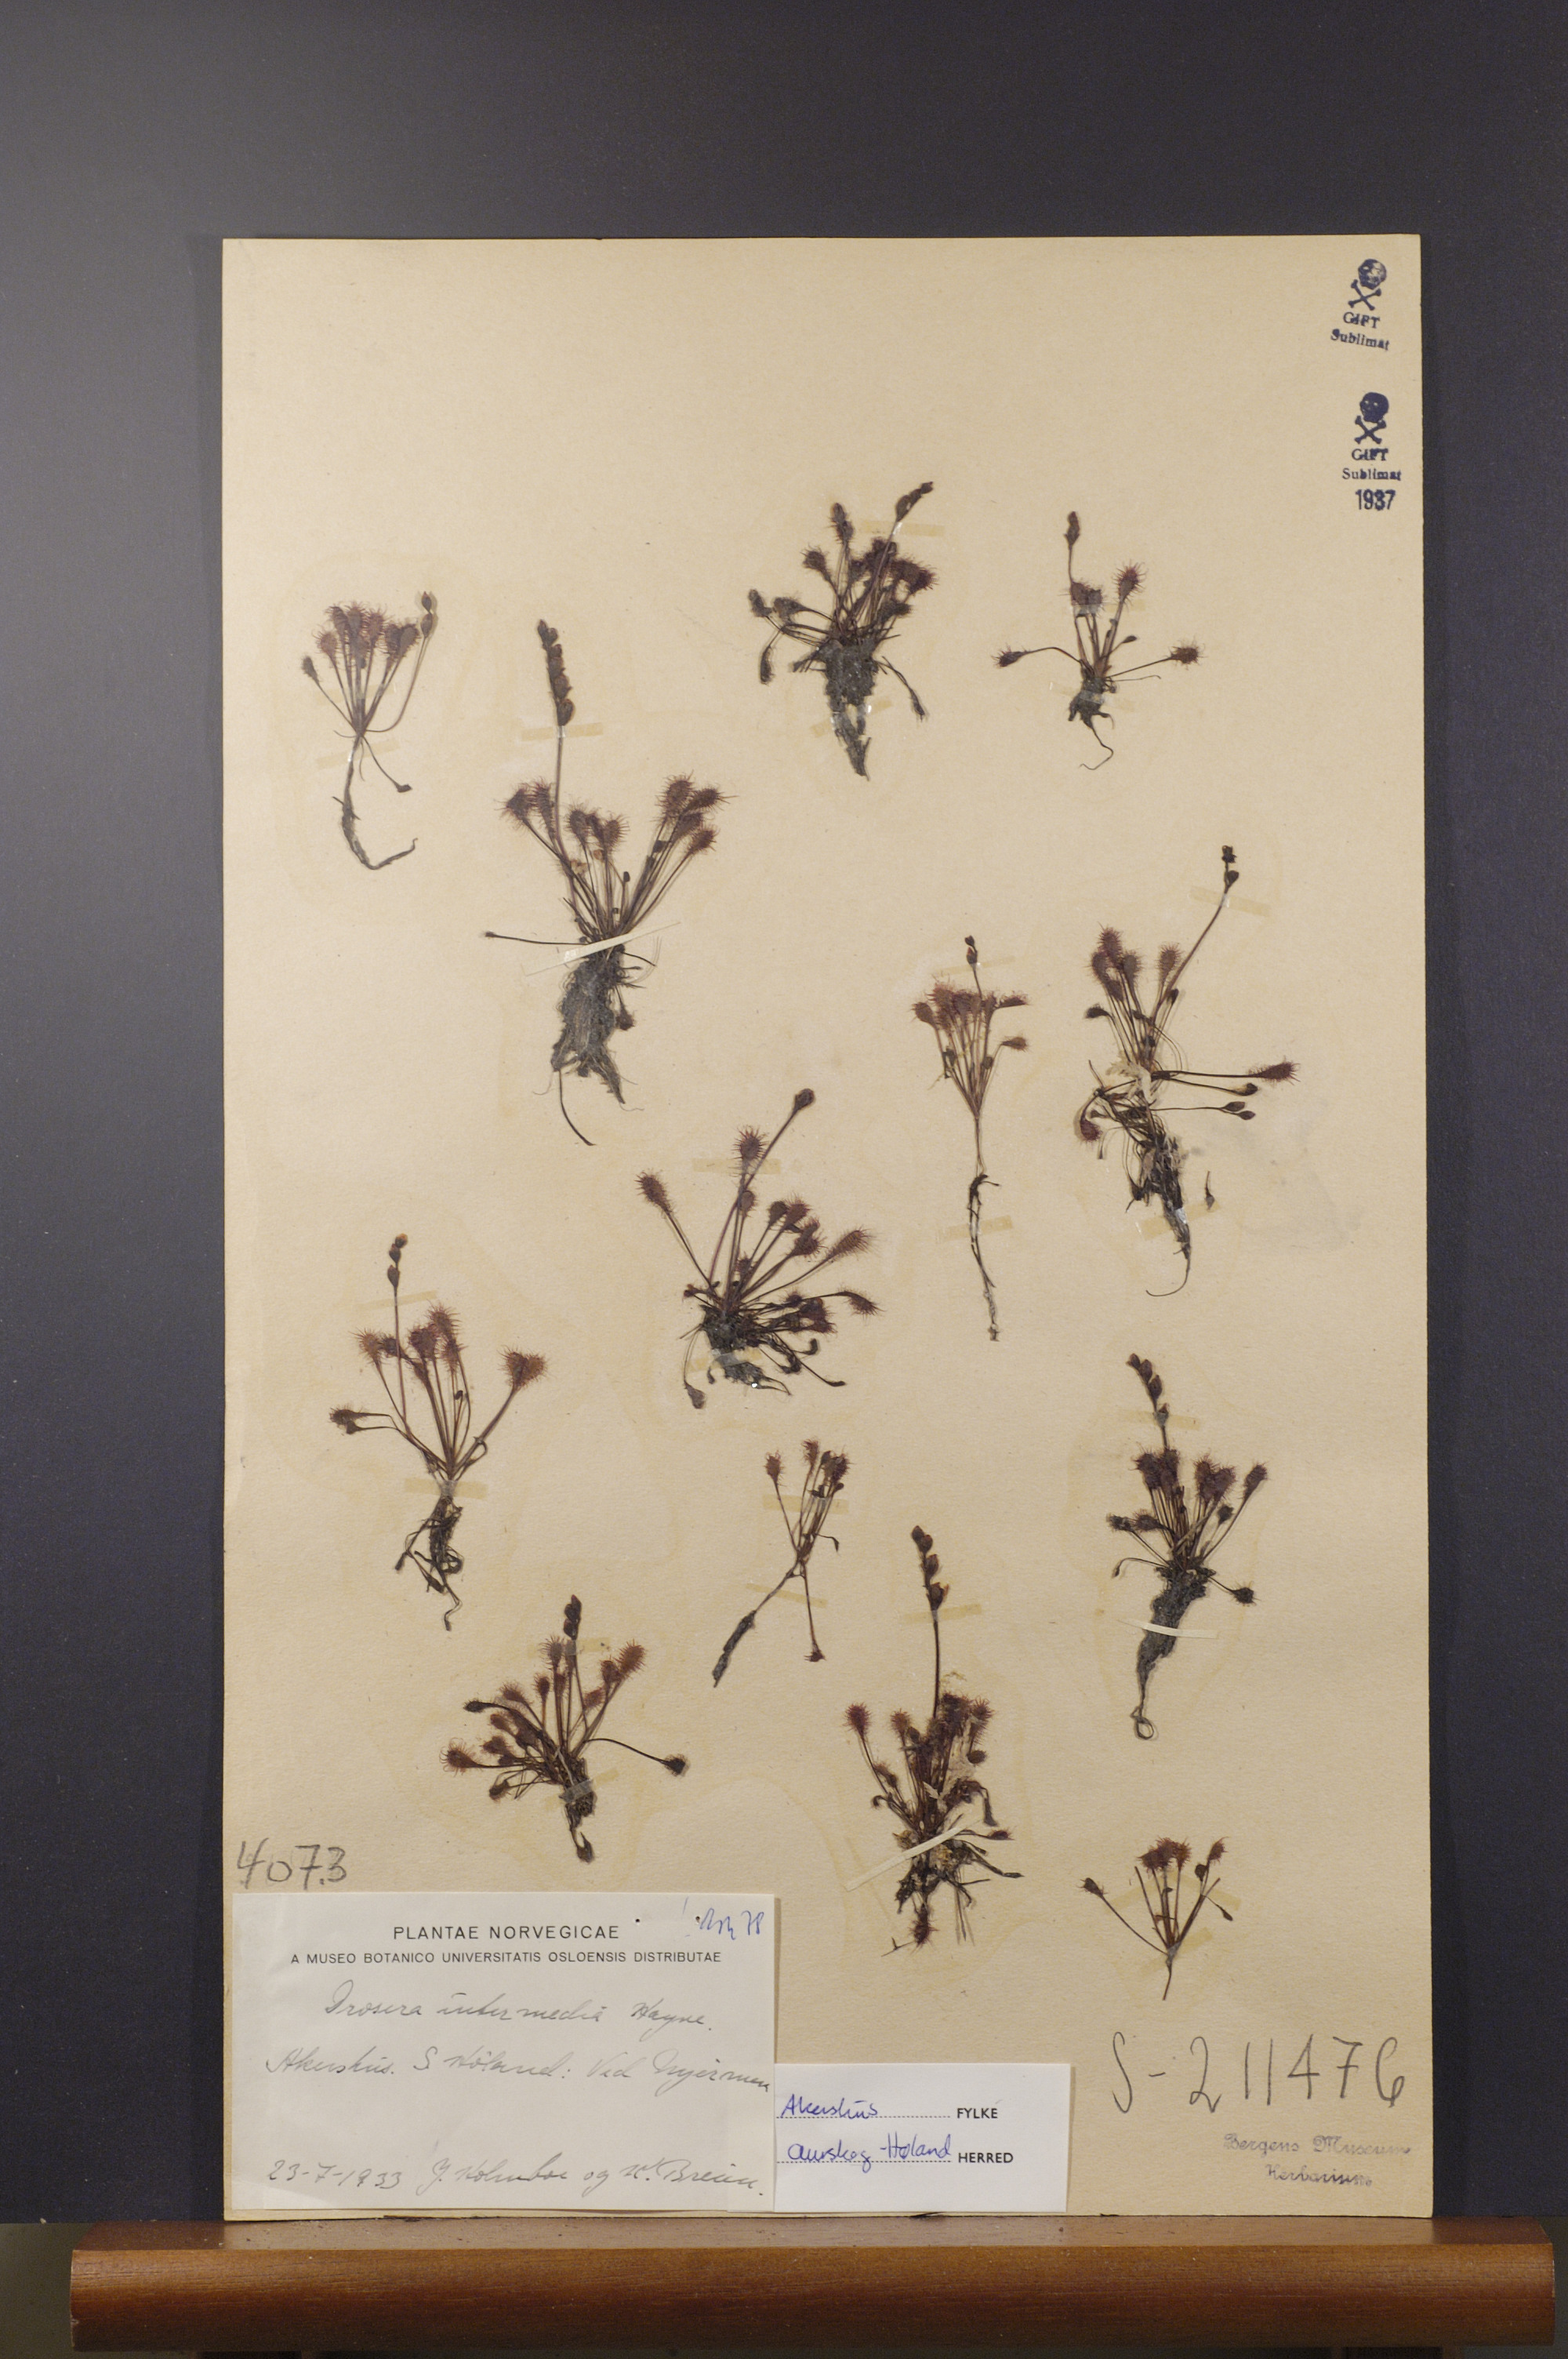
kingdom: Plantae
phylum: Tracheophyta
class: Magnoliopsida
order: Caryophyllales
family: Droseraceae
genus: Drosera
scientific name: Drosera intermedia
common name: Oblong-leaved sundew
